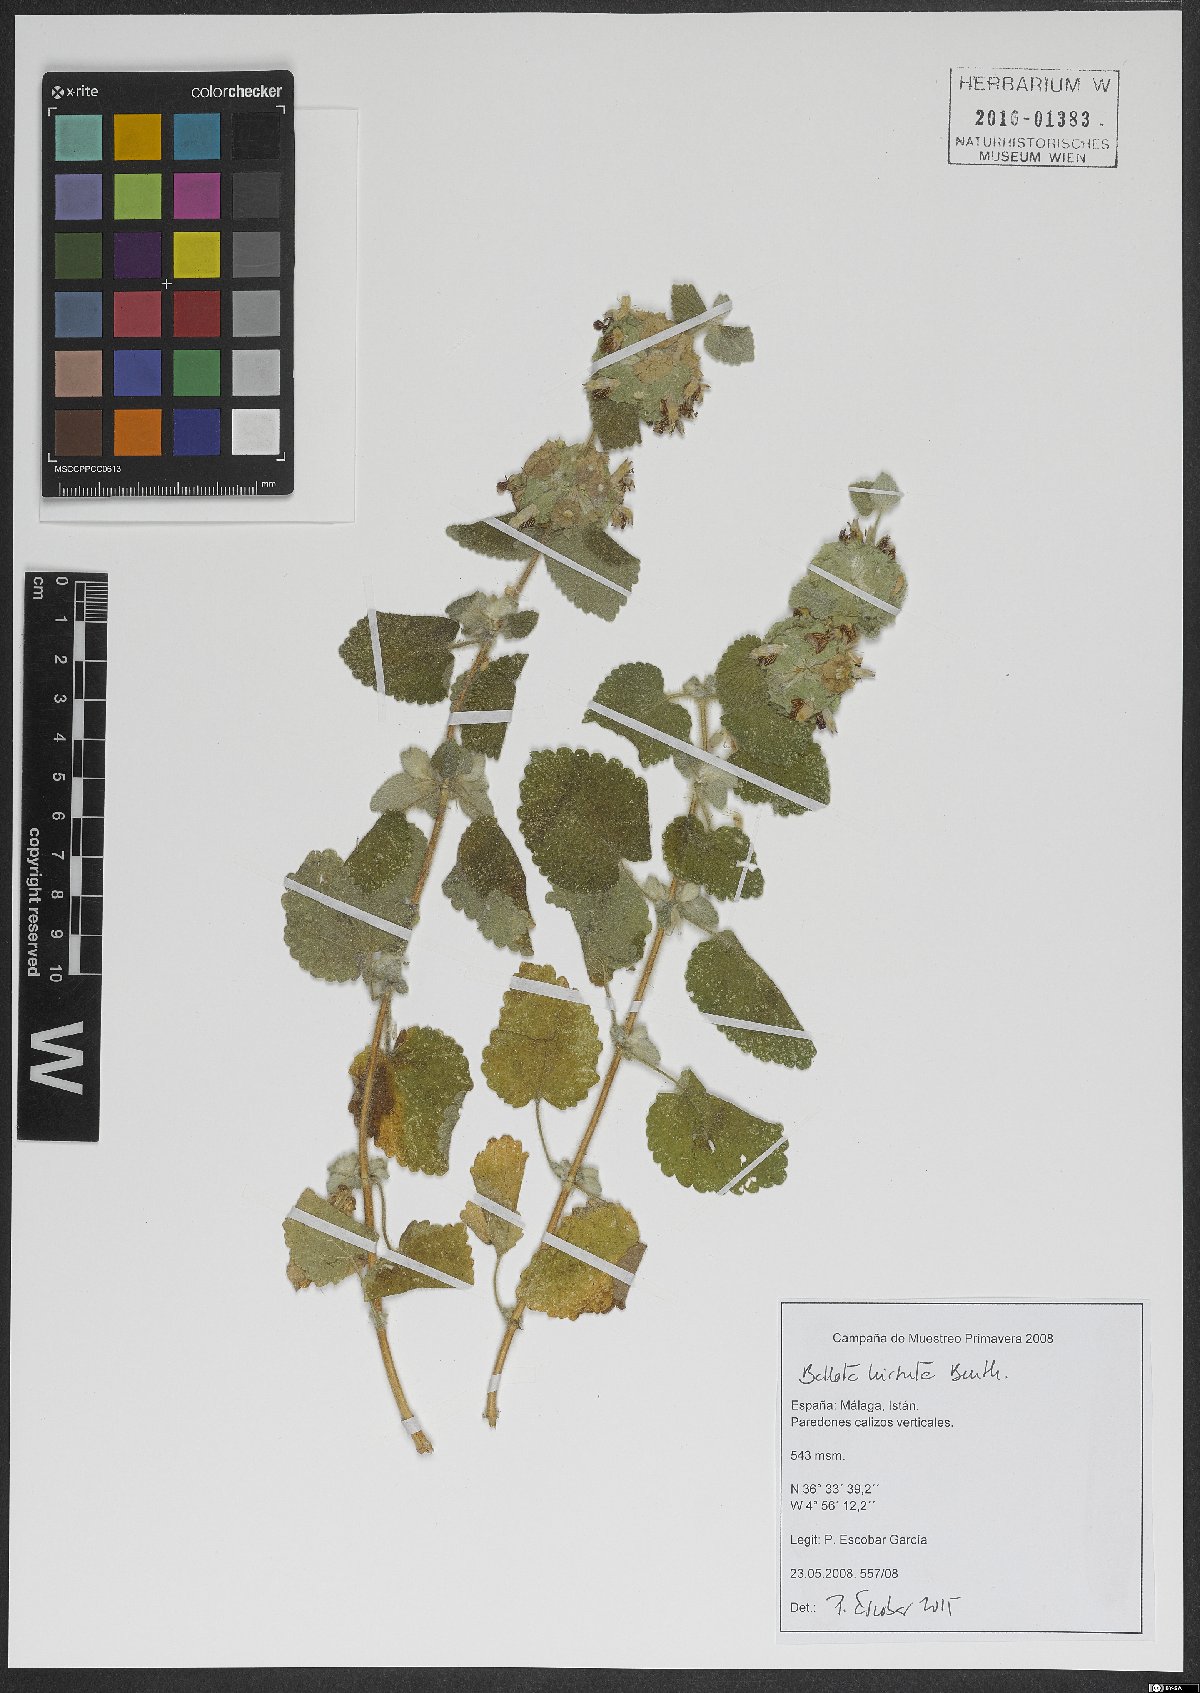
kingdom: Plantae
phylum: Tracheophyta
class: Magnoliopsida
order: Lamiales
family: Lamiaceae
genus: Pseudodictamnus
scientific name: Pseudodictamnus hirsutus
